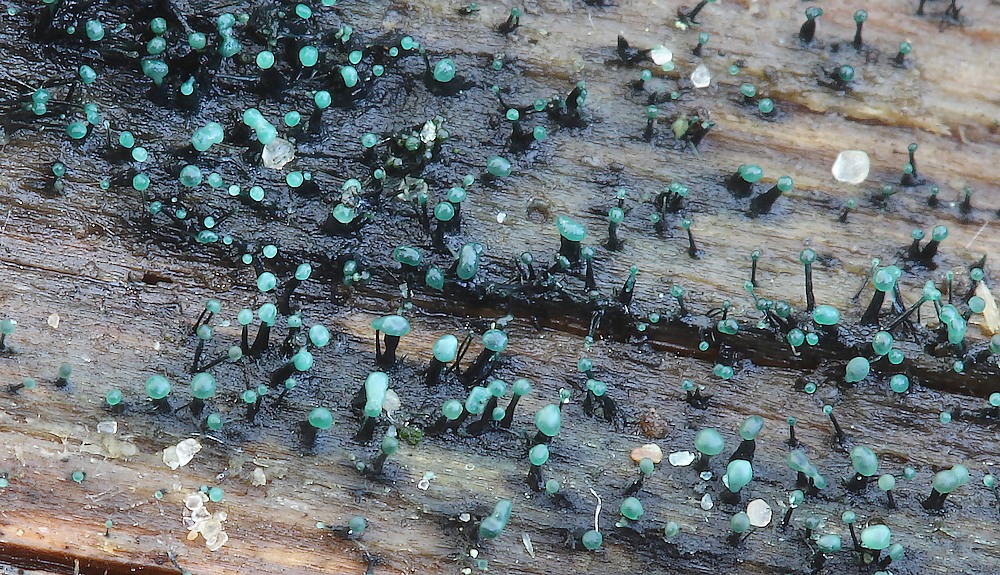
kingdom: Fungi
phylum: Ascomycota
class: Leotiomycetes
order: Leotiales
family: Tympanidaceae
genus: Dendrostilbella
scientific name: Dendrostilbella smaragdina
